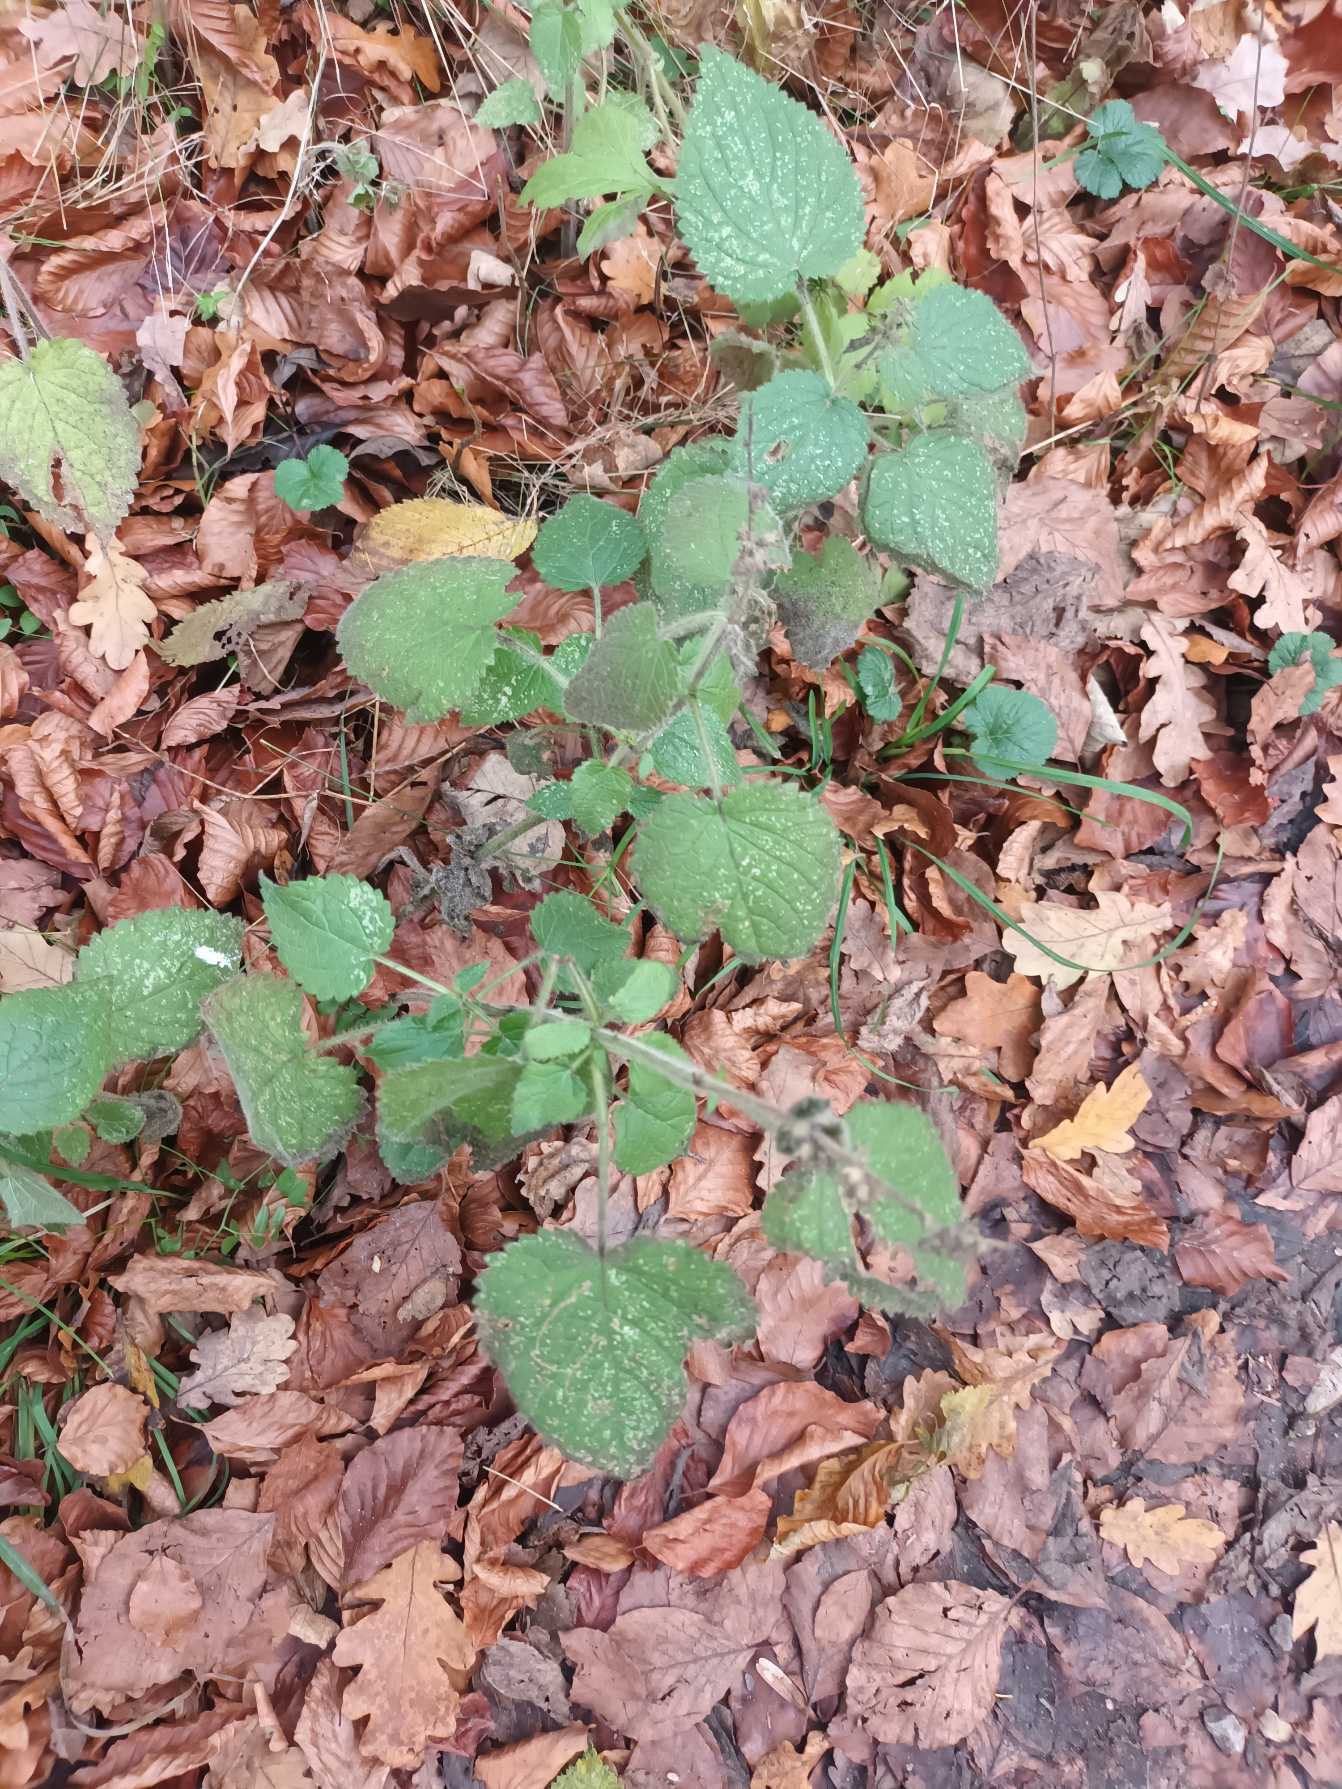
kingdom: Plantae
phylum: Tracheophyta
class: Magnoliopsida
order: Lamiales
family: Lamiaceae
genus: Stachys
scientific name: Stachys sylvatica
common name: Skov-galtetand
